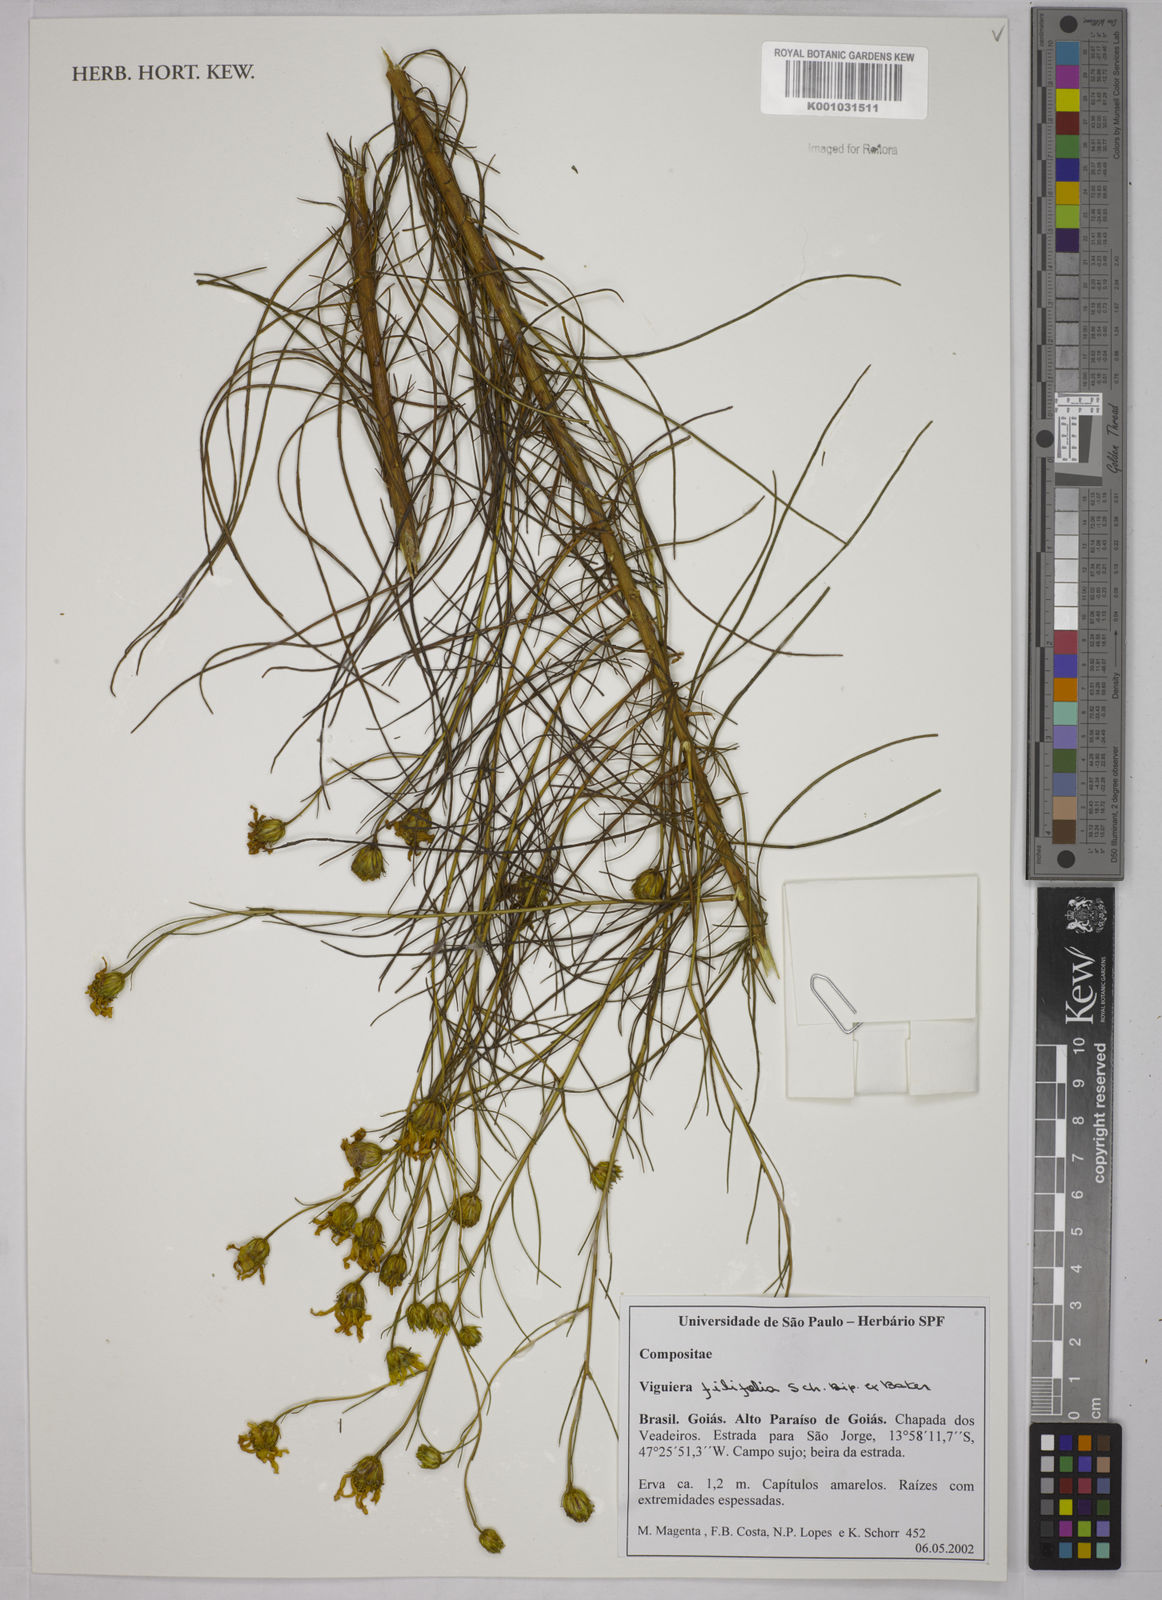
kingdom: Plantae
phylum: Tracheophyta
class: Magnoliopsida
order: Asterales
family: Asteraceae
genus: Aldama
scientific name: Aldama filifolia
